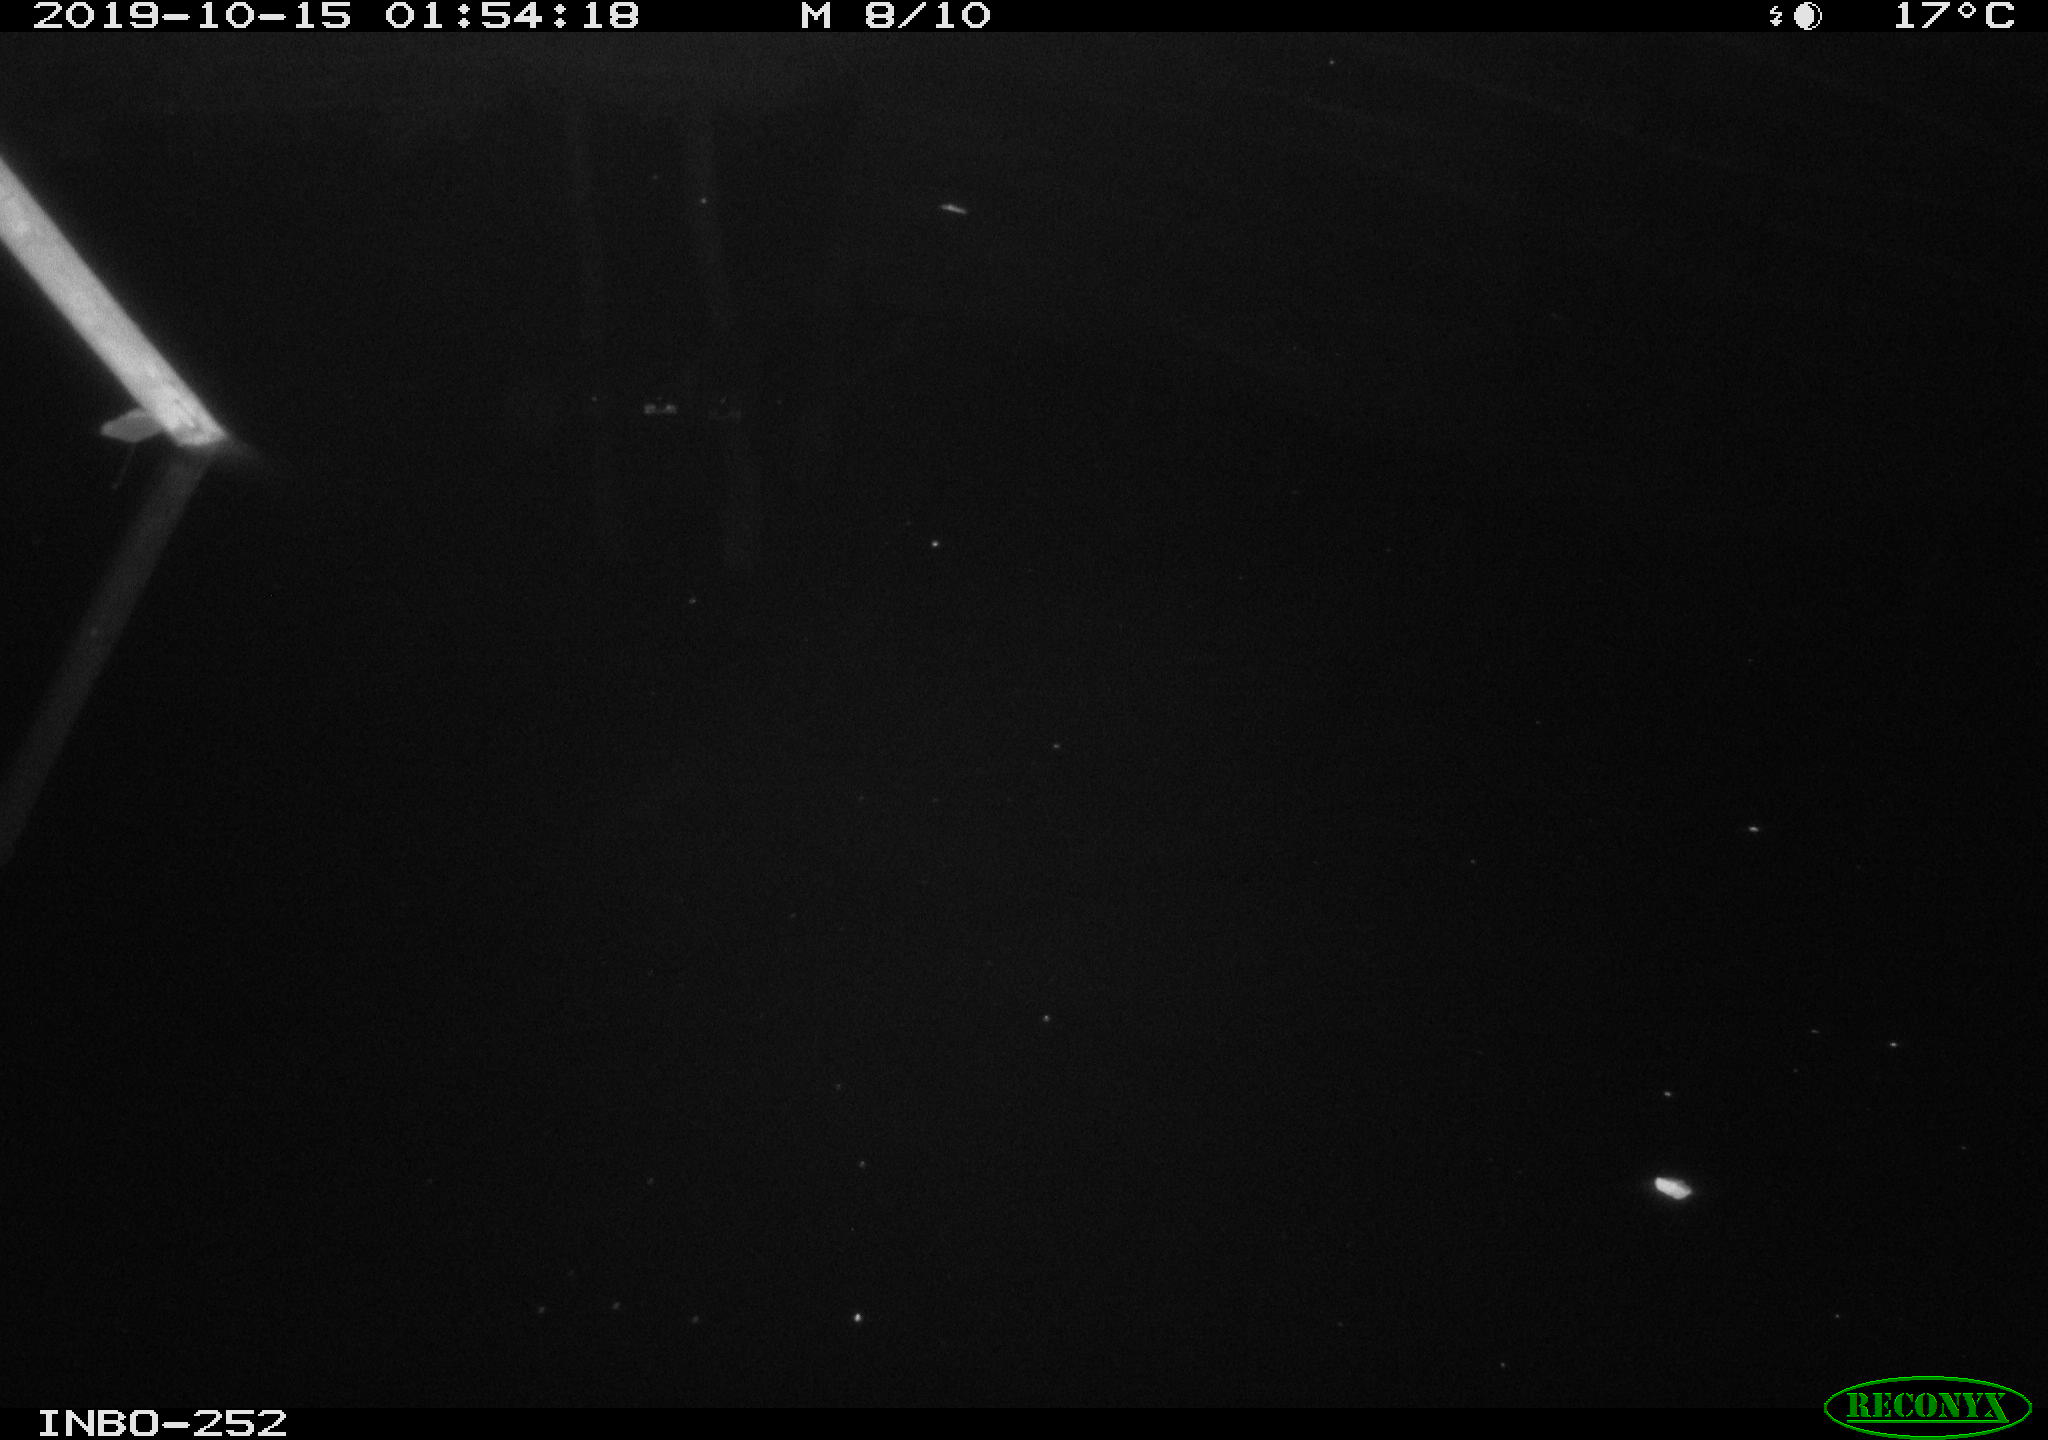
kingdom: Animalia
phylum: Chordata
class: Aves
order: Anseriformes
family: Anatidae
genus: Anas
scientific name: Anas platyrhynchos
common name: Mallard
